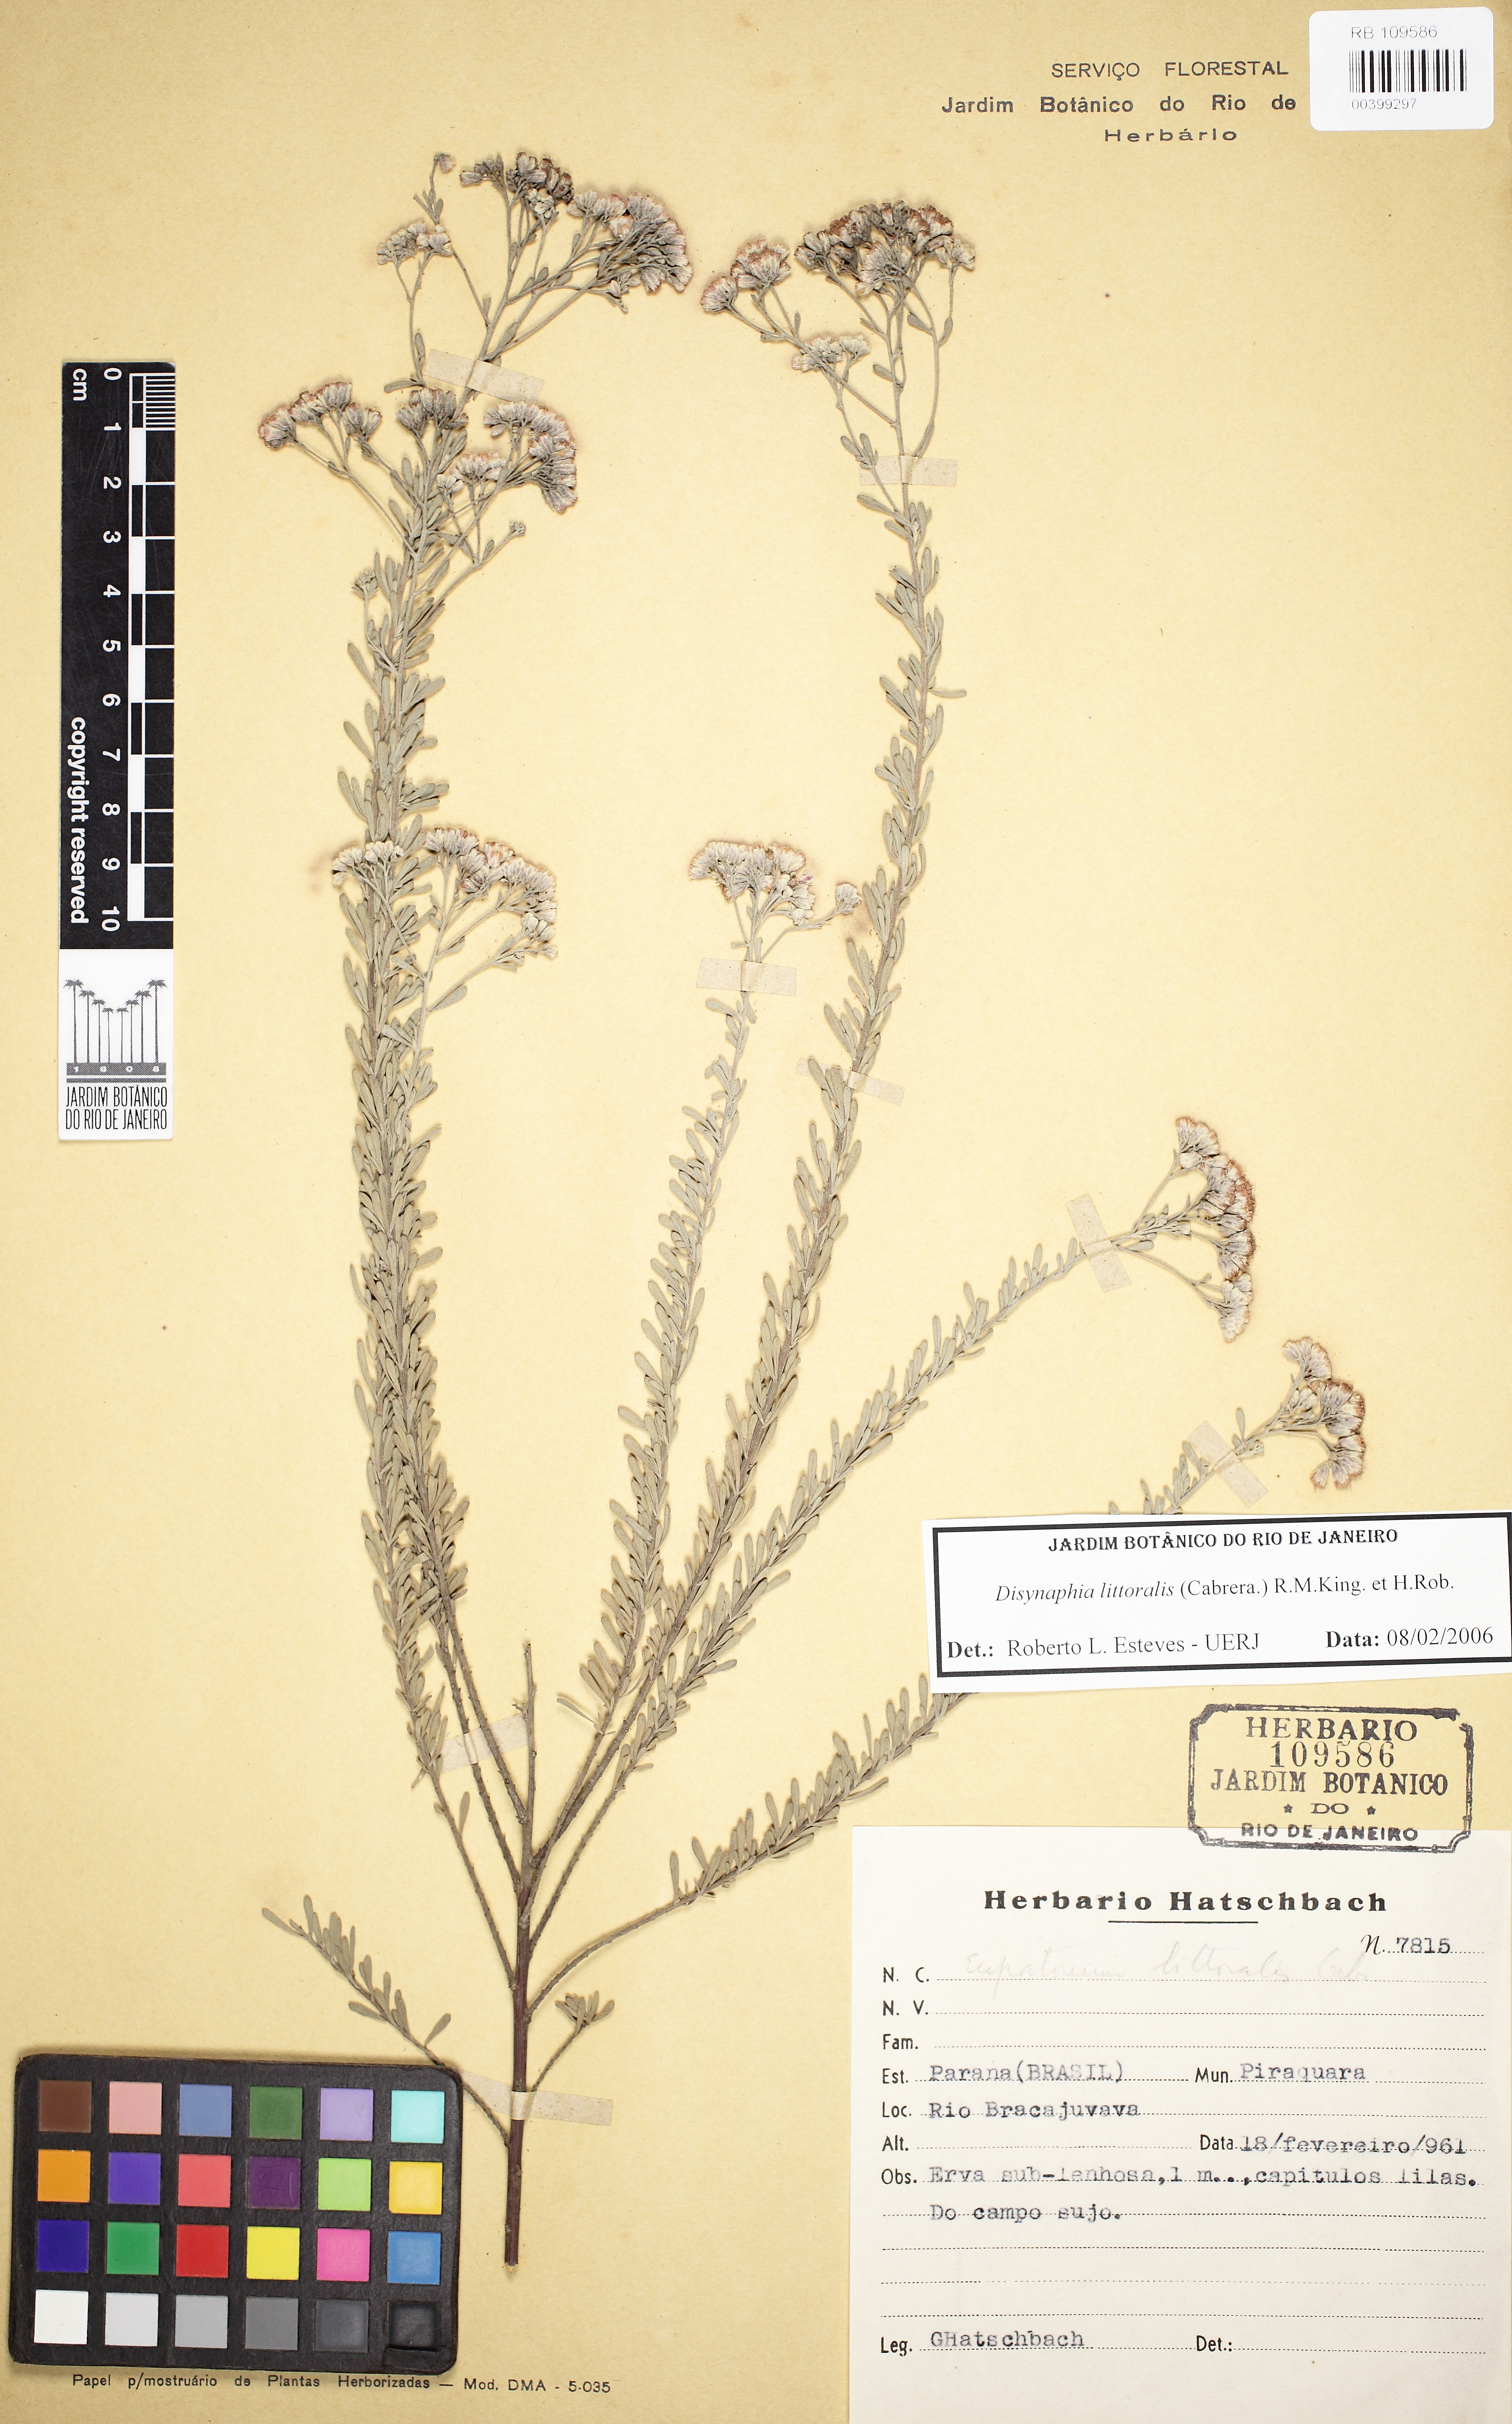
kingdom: Plantae
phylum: Tracheophyta
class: Magnoliopsida
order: Asterales
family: Asteraceae
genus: Disynaphia
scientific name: Disynaphia littoralis
